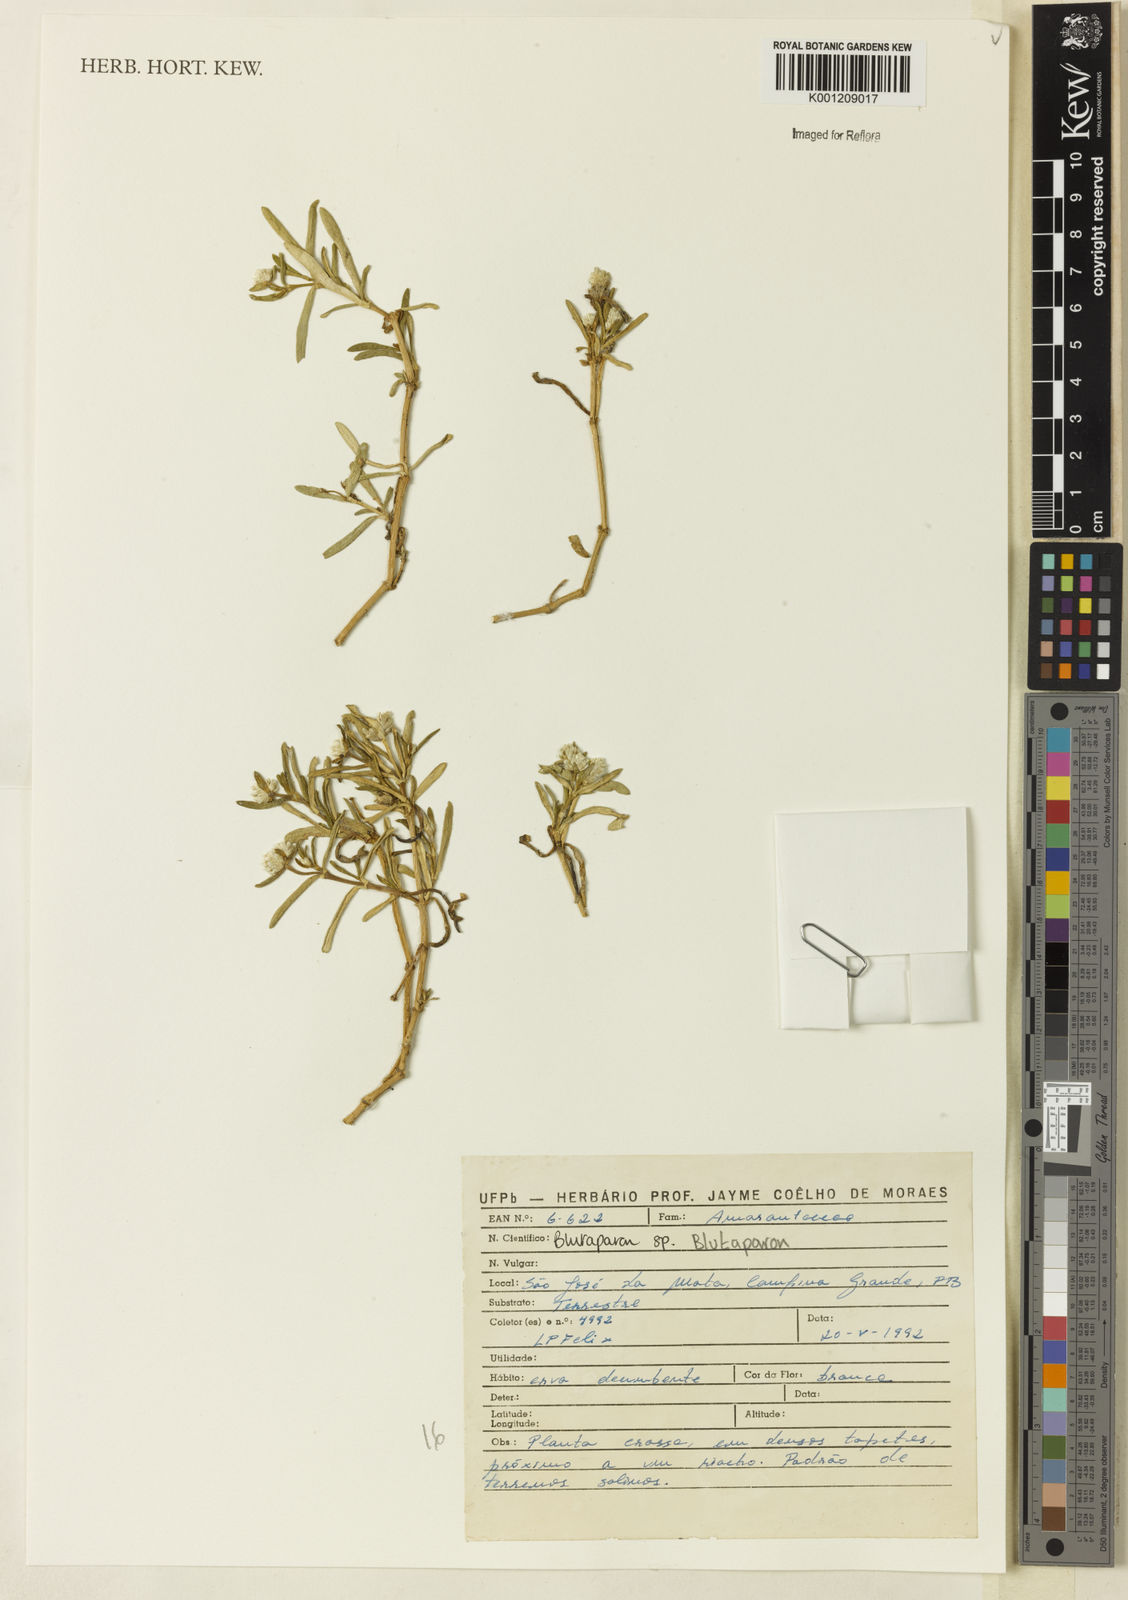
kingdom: Plantae
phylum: Tracheophyta
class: Magnoliopsida
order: Caryophyllales
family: Amaranthaceae
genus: Blutaparon
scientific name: Blutaparon
